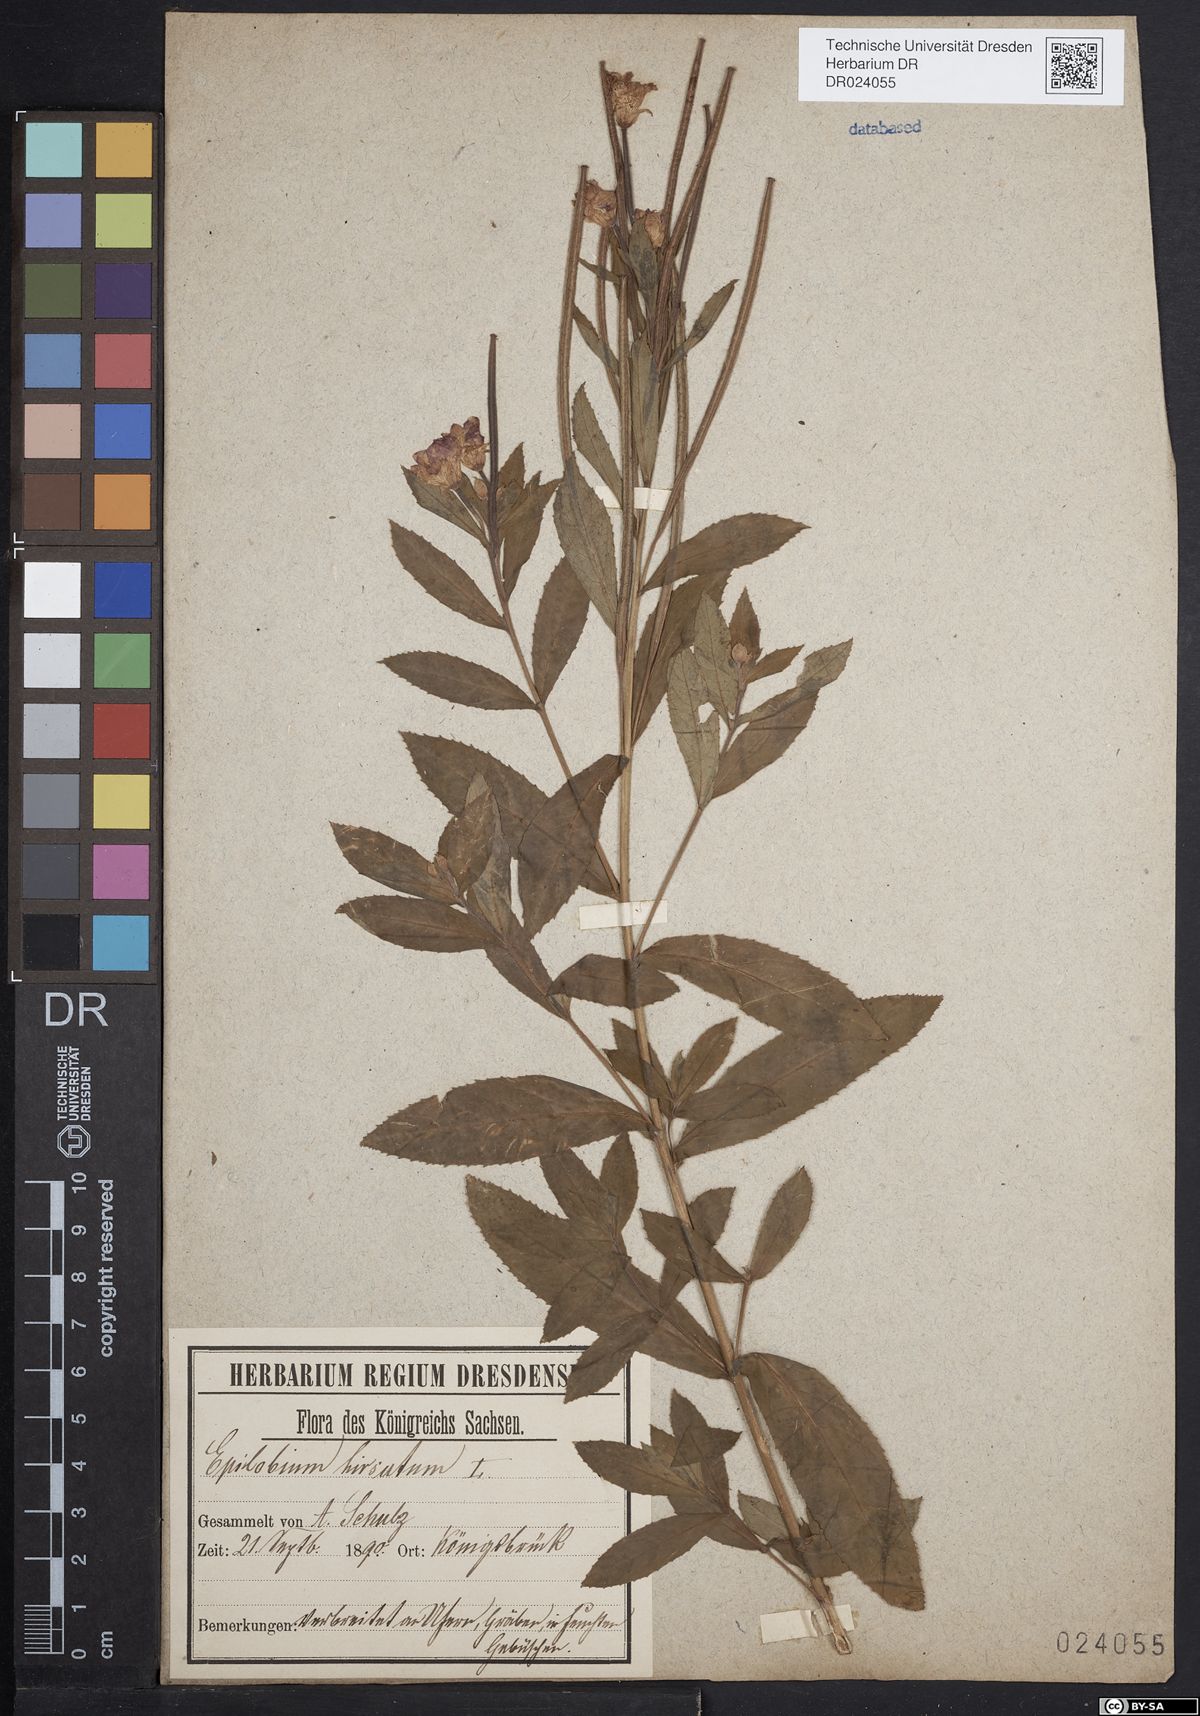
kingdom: Plantae
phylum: Tracheophyta
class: Magnoliopsida
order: Myrtales
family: Onagraceae
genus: Epilobium
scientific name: Epilobium hirsutum
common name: Great willowherb
